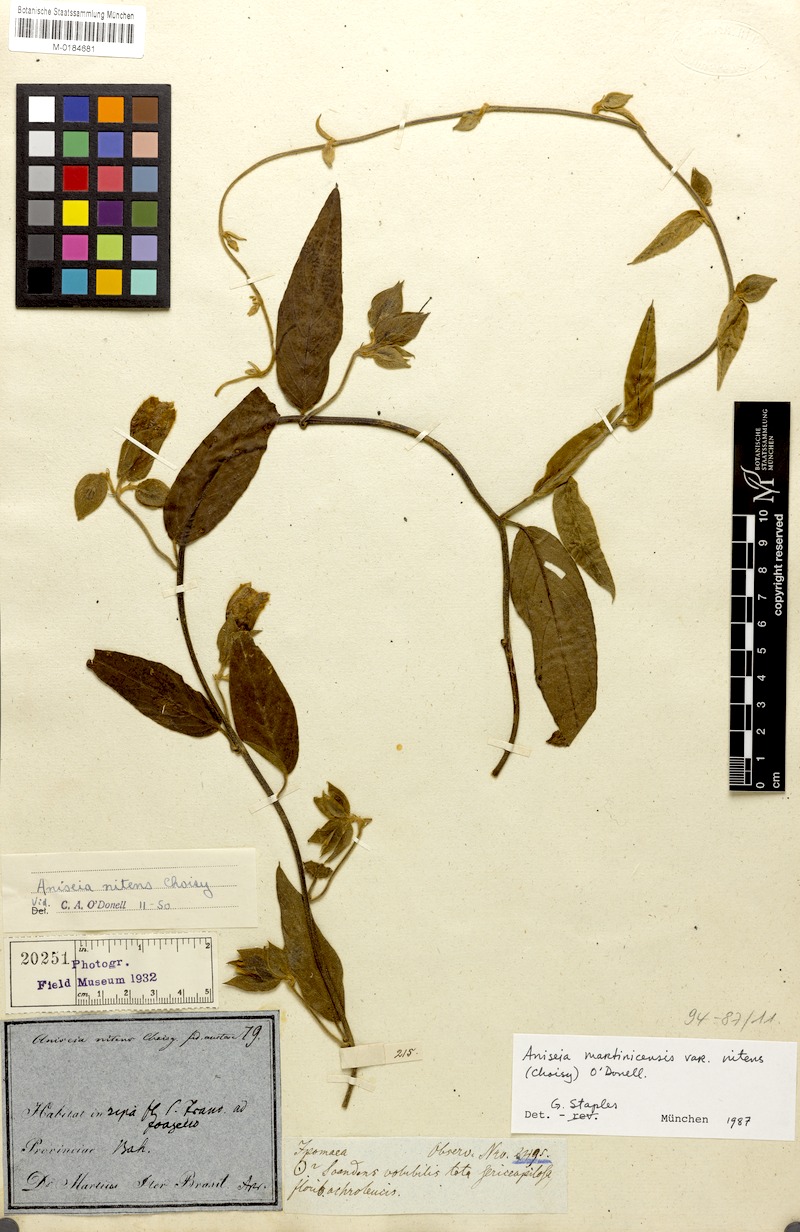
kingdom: Plantae
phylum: Tracheophyta
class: Magnoliopsida
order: Solanales
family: Convolvulaceae
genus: Aniseia
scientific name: Aniseia martinicensis
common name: Kulayadambu
